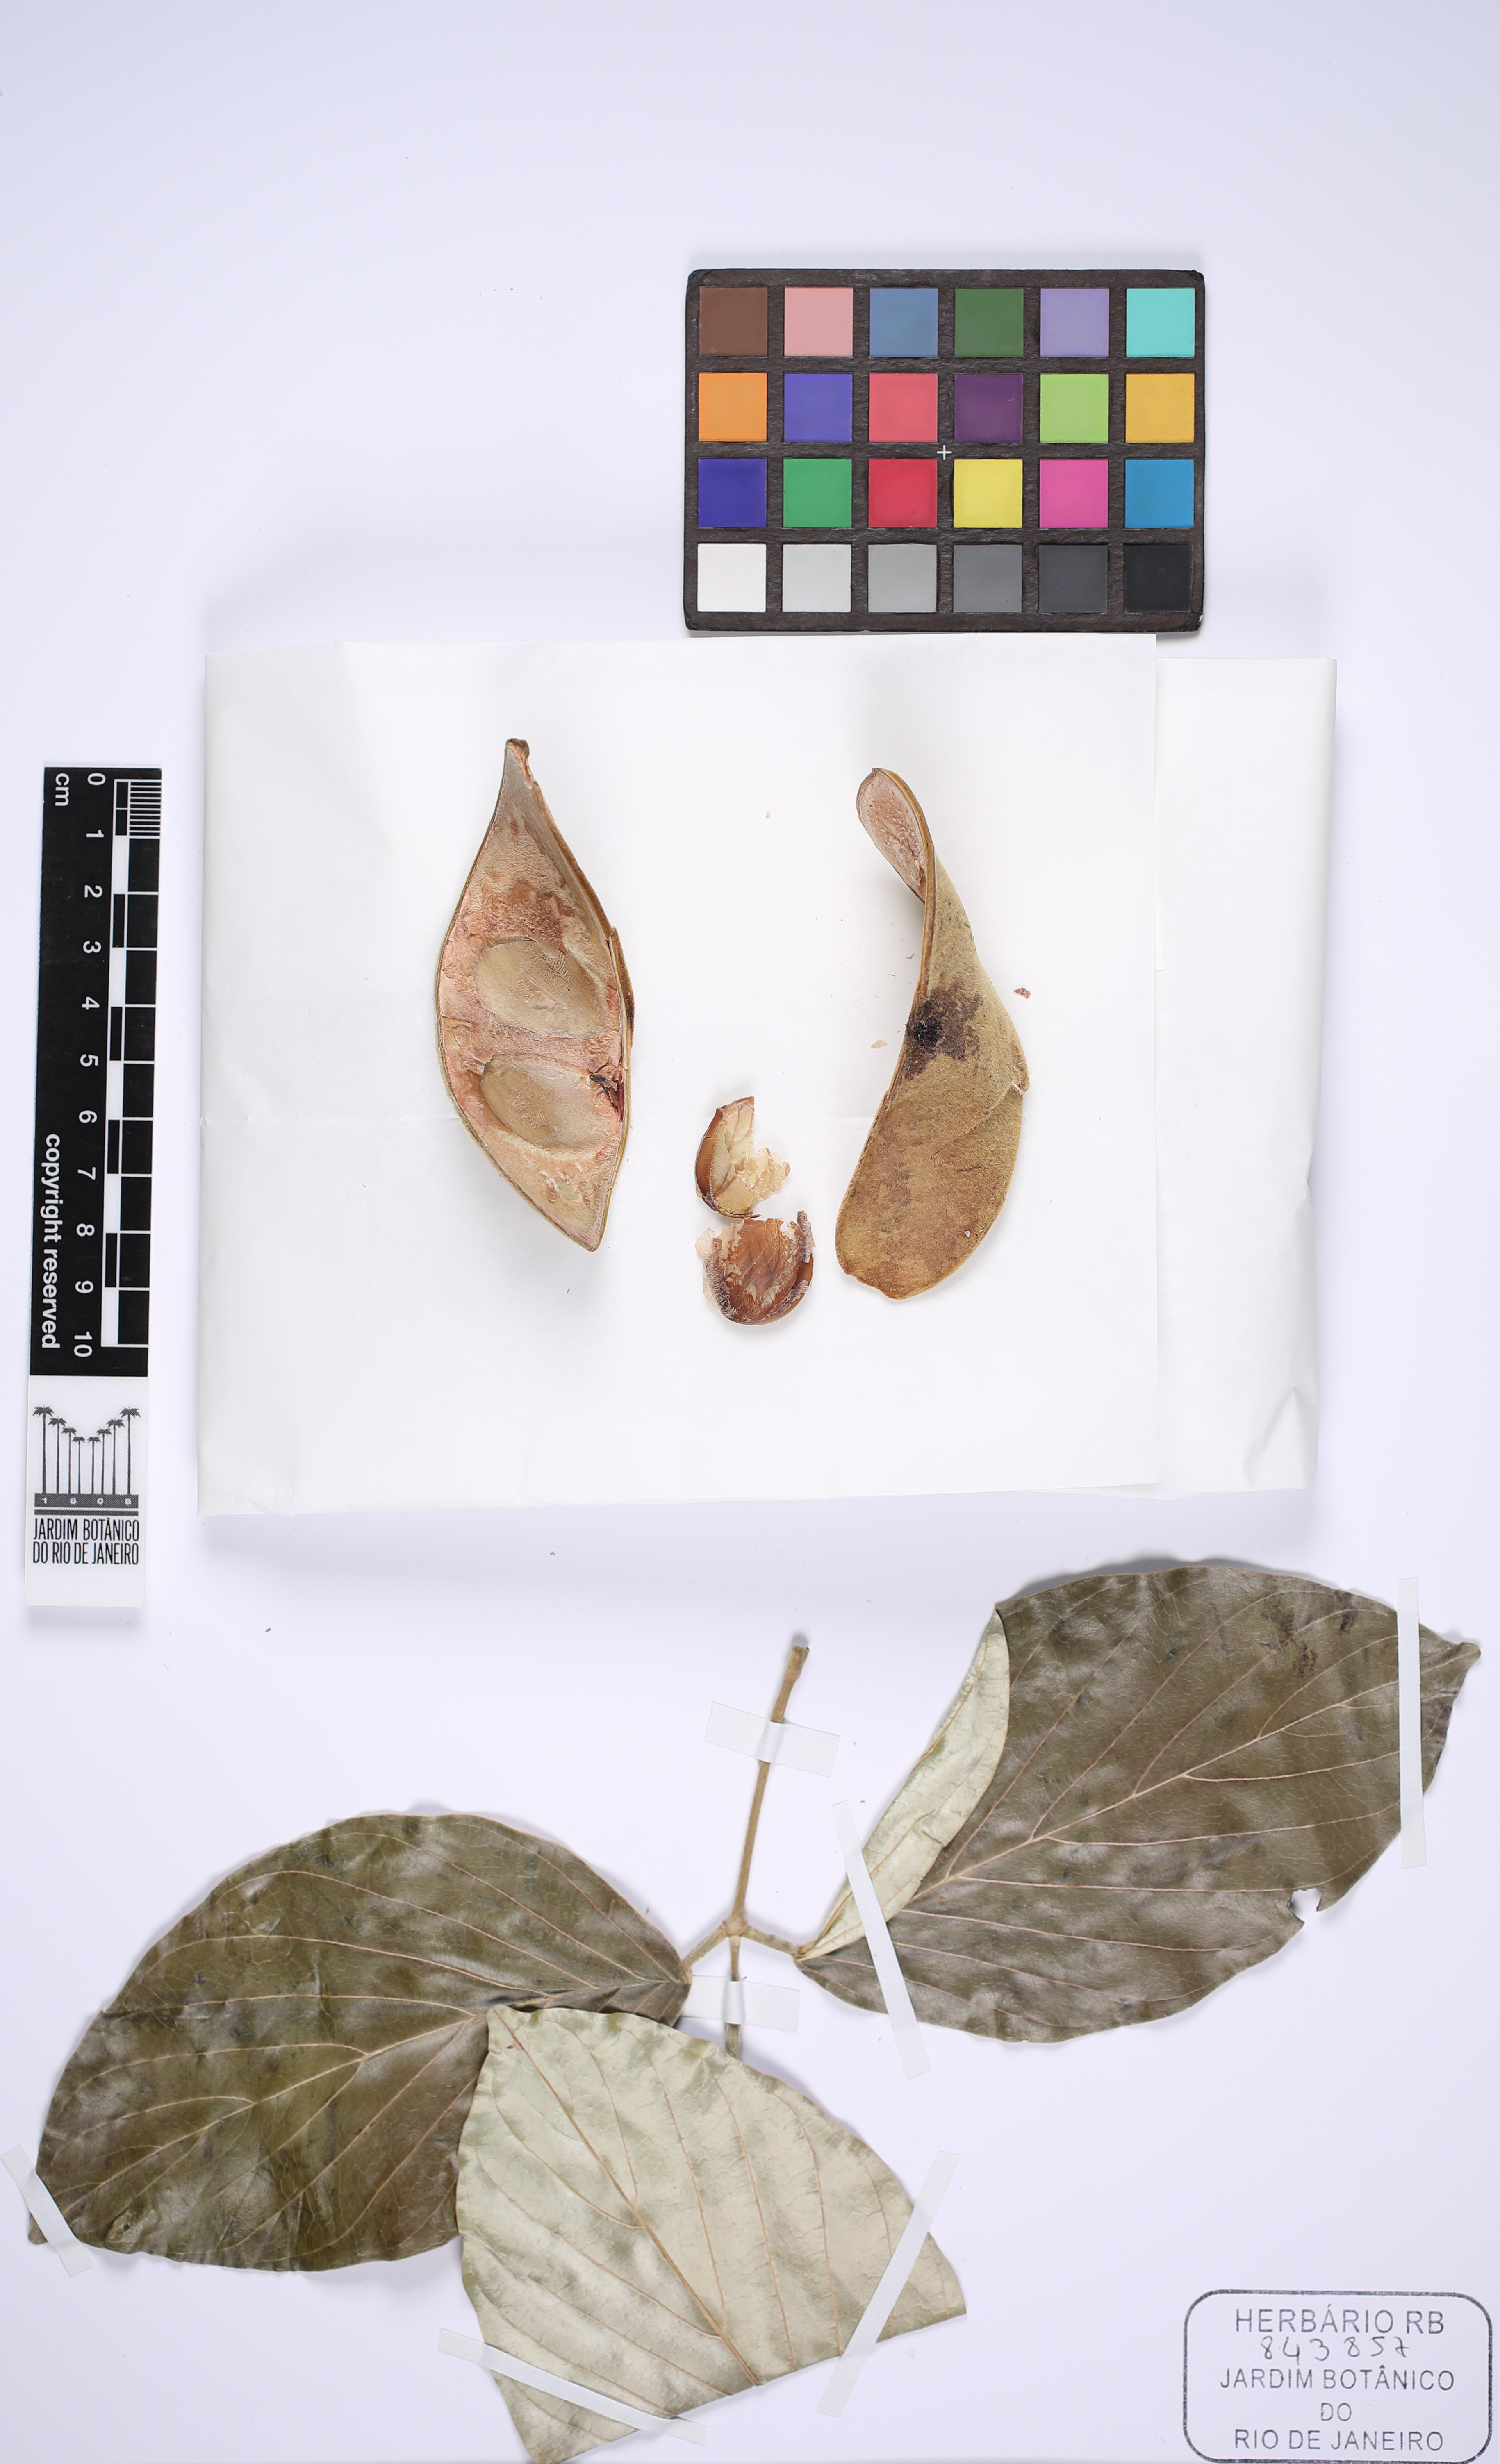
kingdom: Plantae
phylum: Tracheophyta
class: Magnoliopsida
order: Fabales
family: Fabaceae
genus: Cratylia
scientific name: Cratylia argentea
